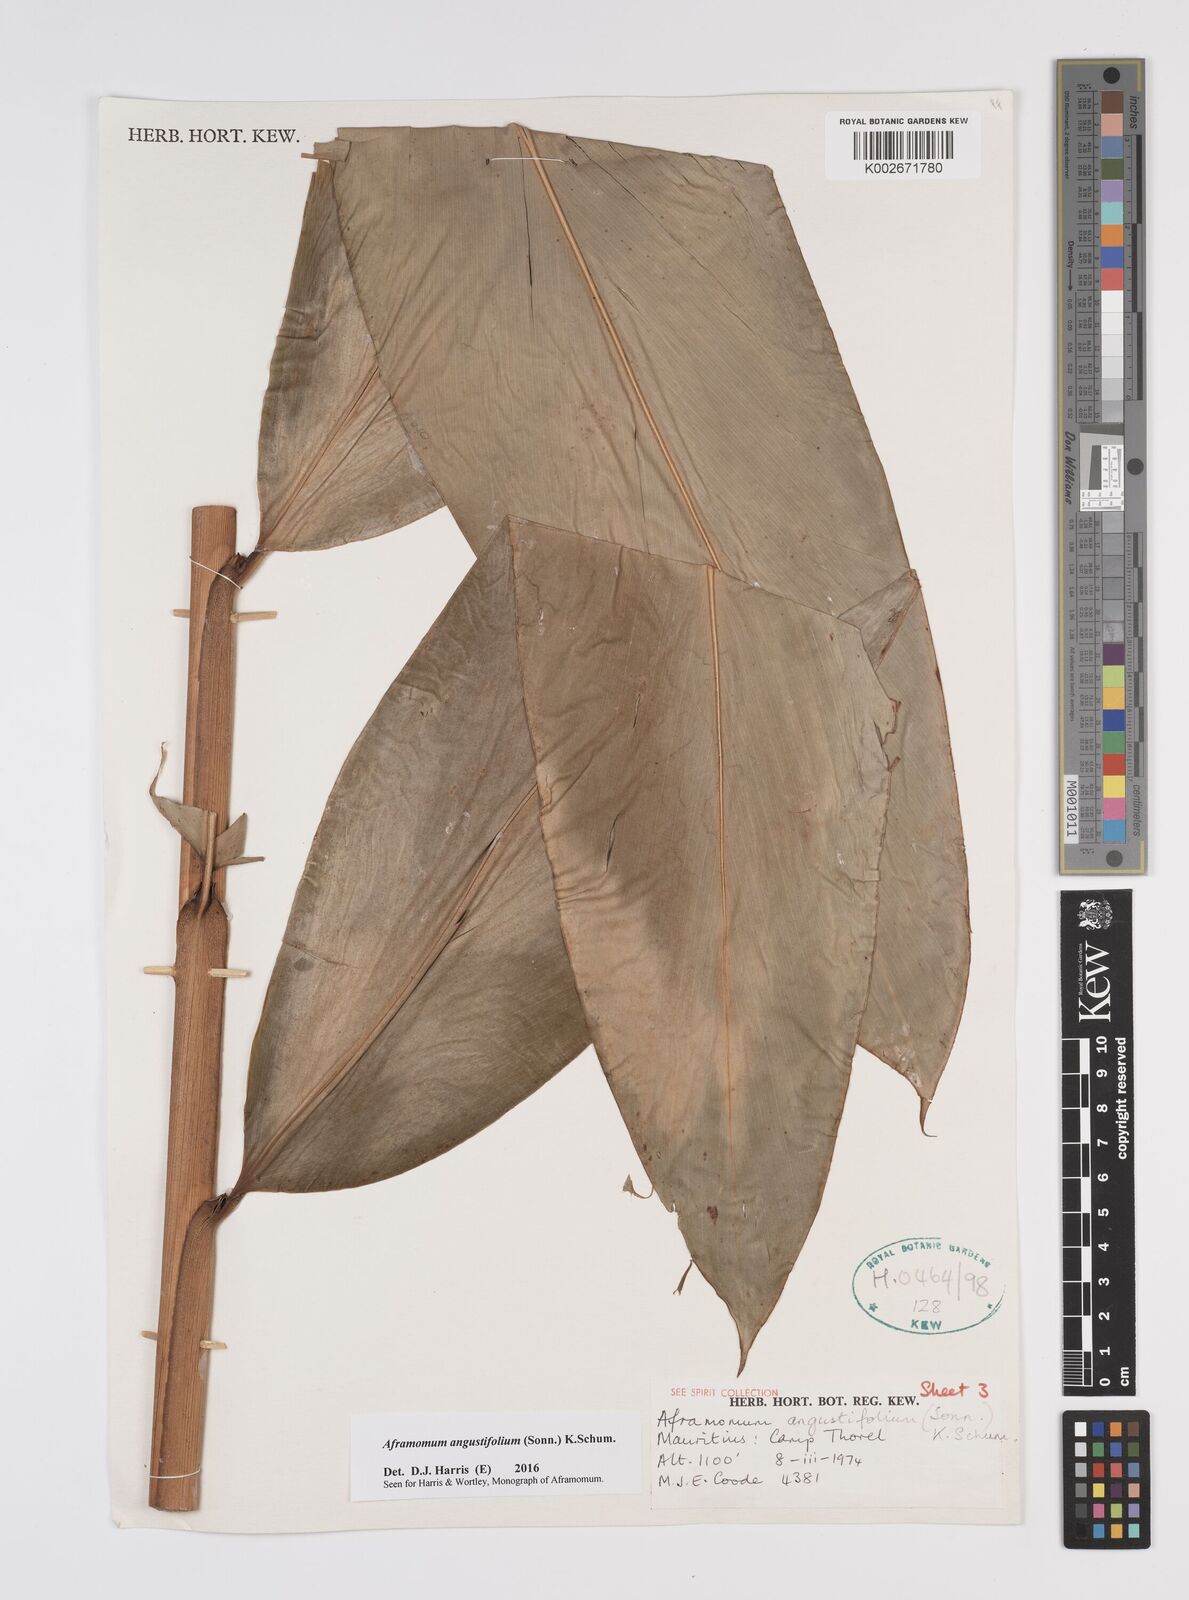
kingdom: Plantae
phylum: Tracheophyta
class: Liliopsida
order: Zingiberales
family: Zingiberaceae
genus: Aframomum
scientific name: Aframomum angustifolium
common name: Guinea grains
